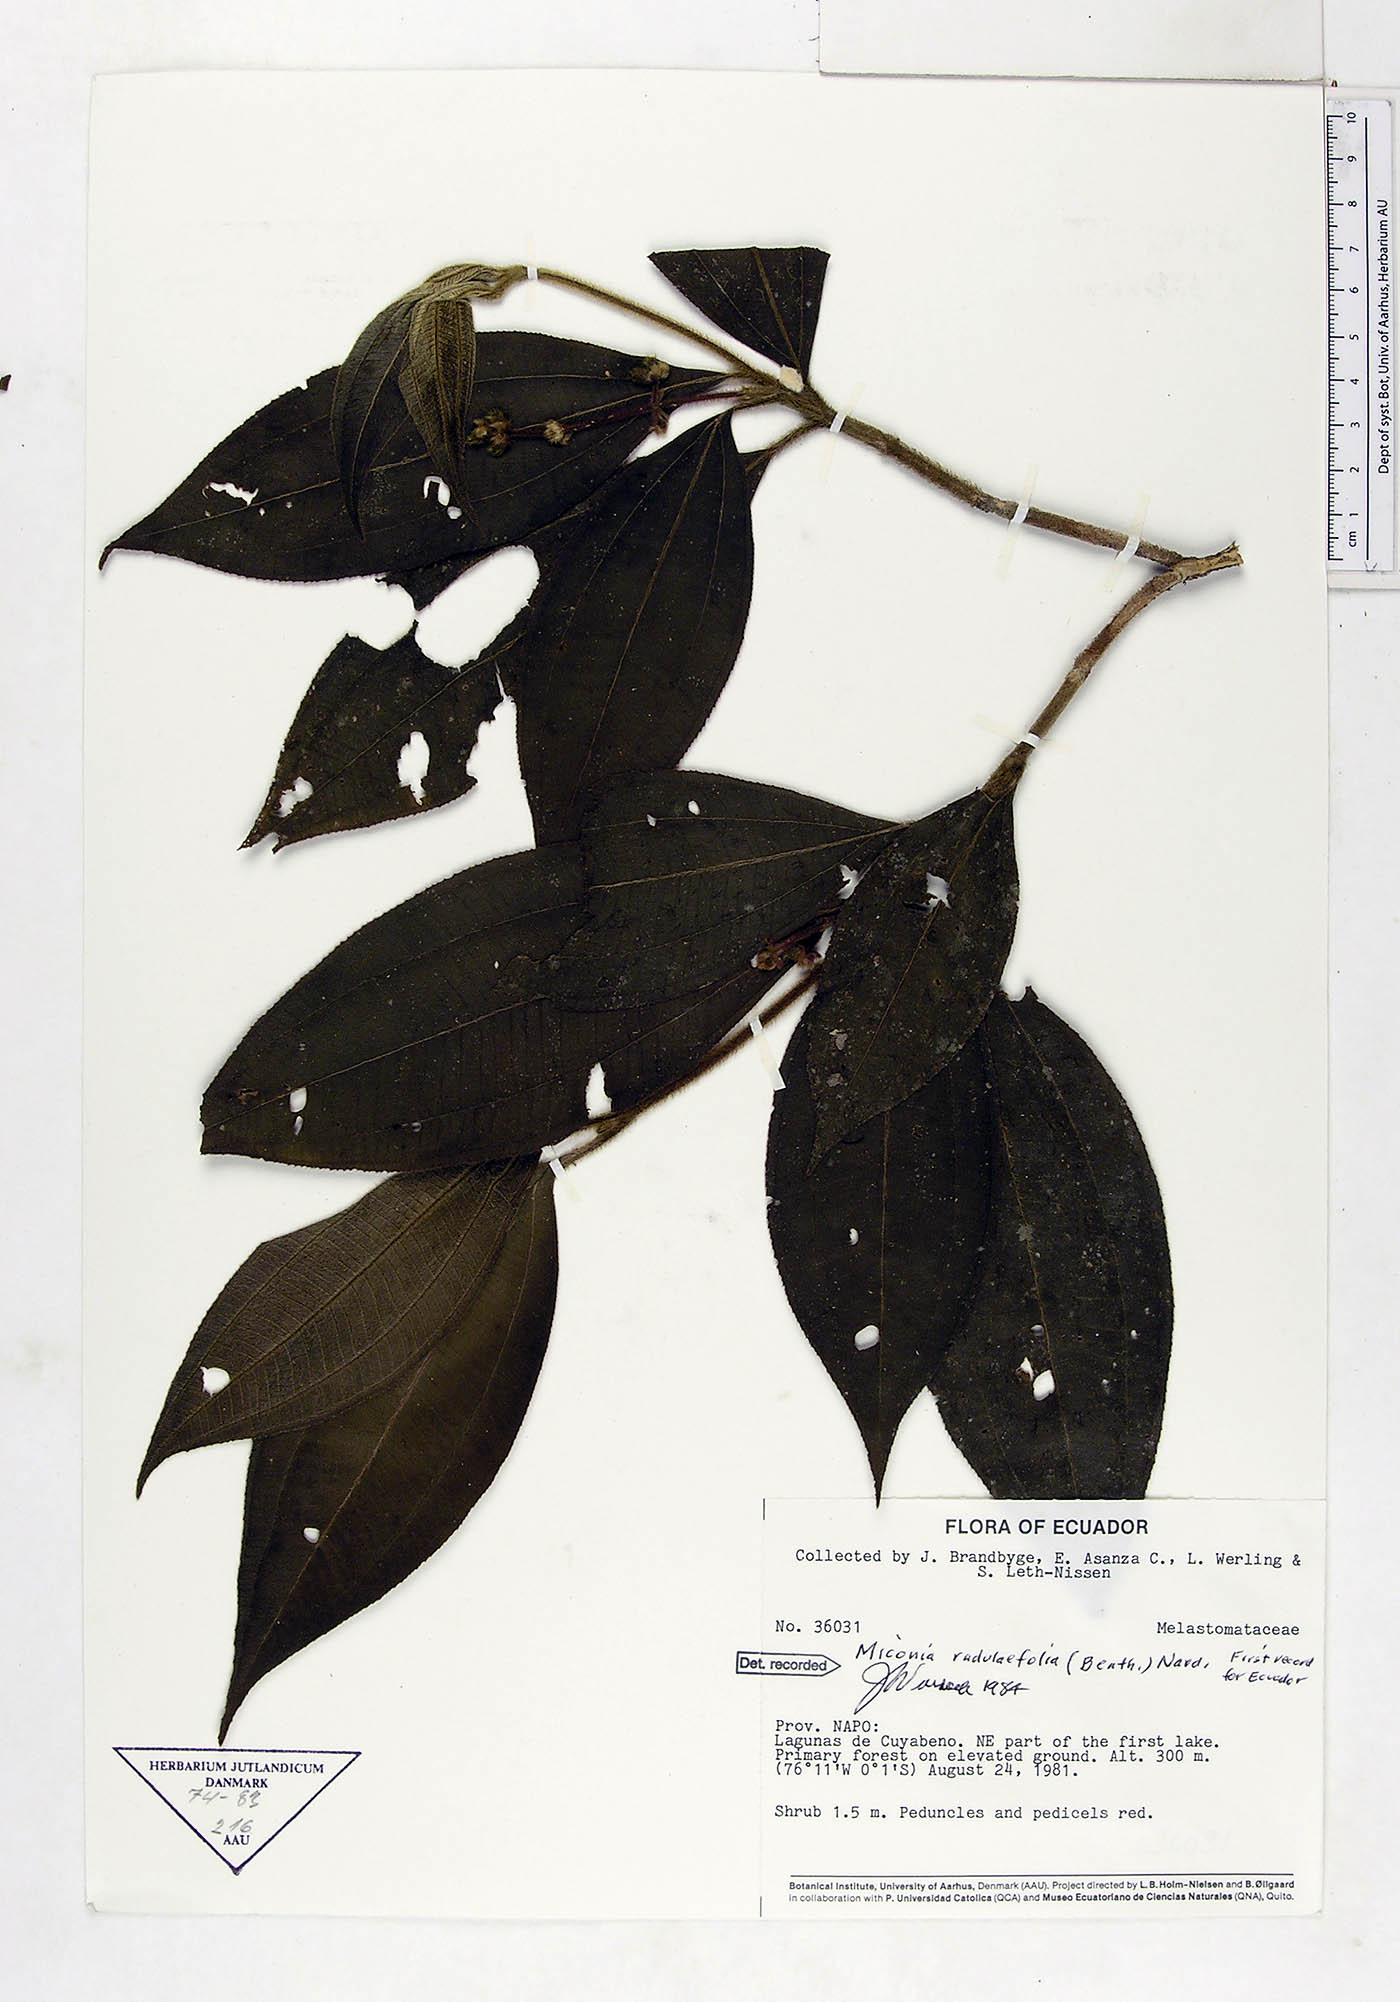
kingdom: Plantae
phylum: Tracheophyta
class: Magnoliopsida
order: Myrtales
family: Melastomataceae
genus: Miconia
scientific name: Miconia radulifolia
